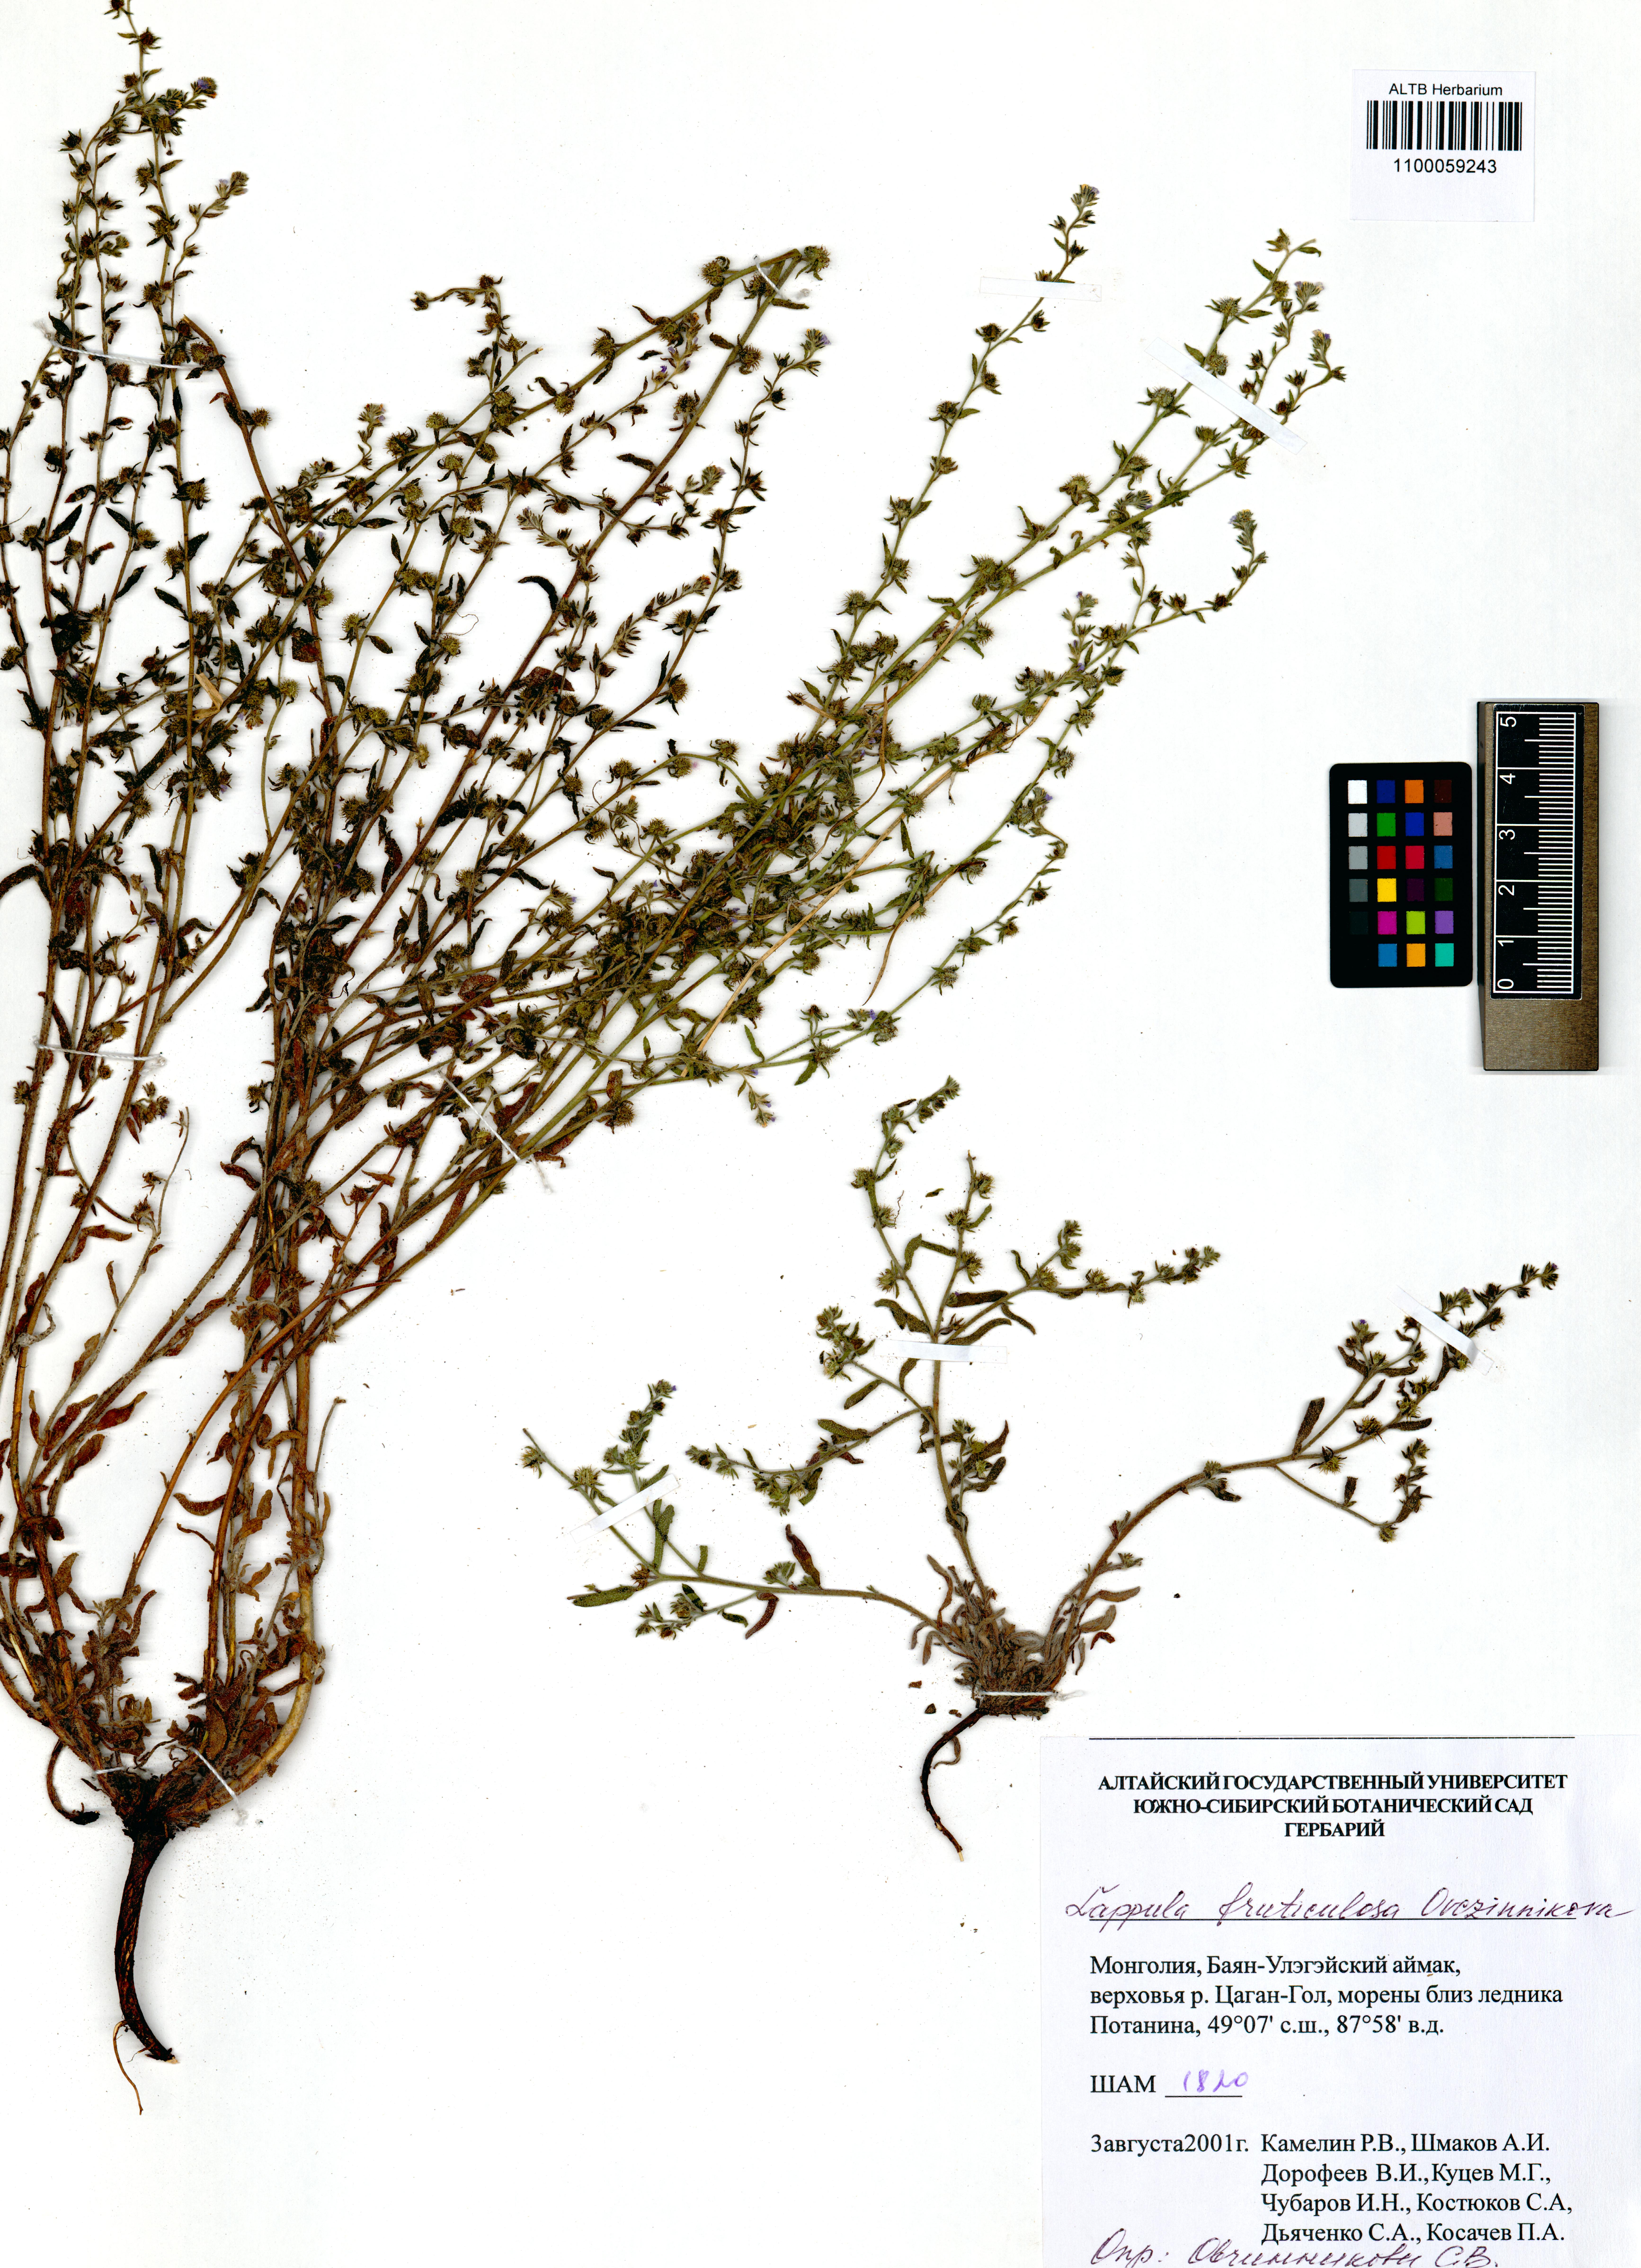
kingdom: Plantae
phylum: Tracheophyta
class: Magnoliopsida
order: Boraginales
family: Boraginaceae
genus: Lappula
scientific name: Lappula fruticulosa
